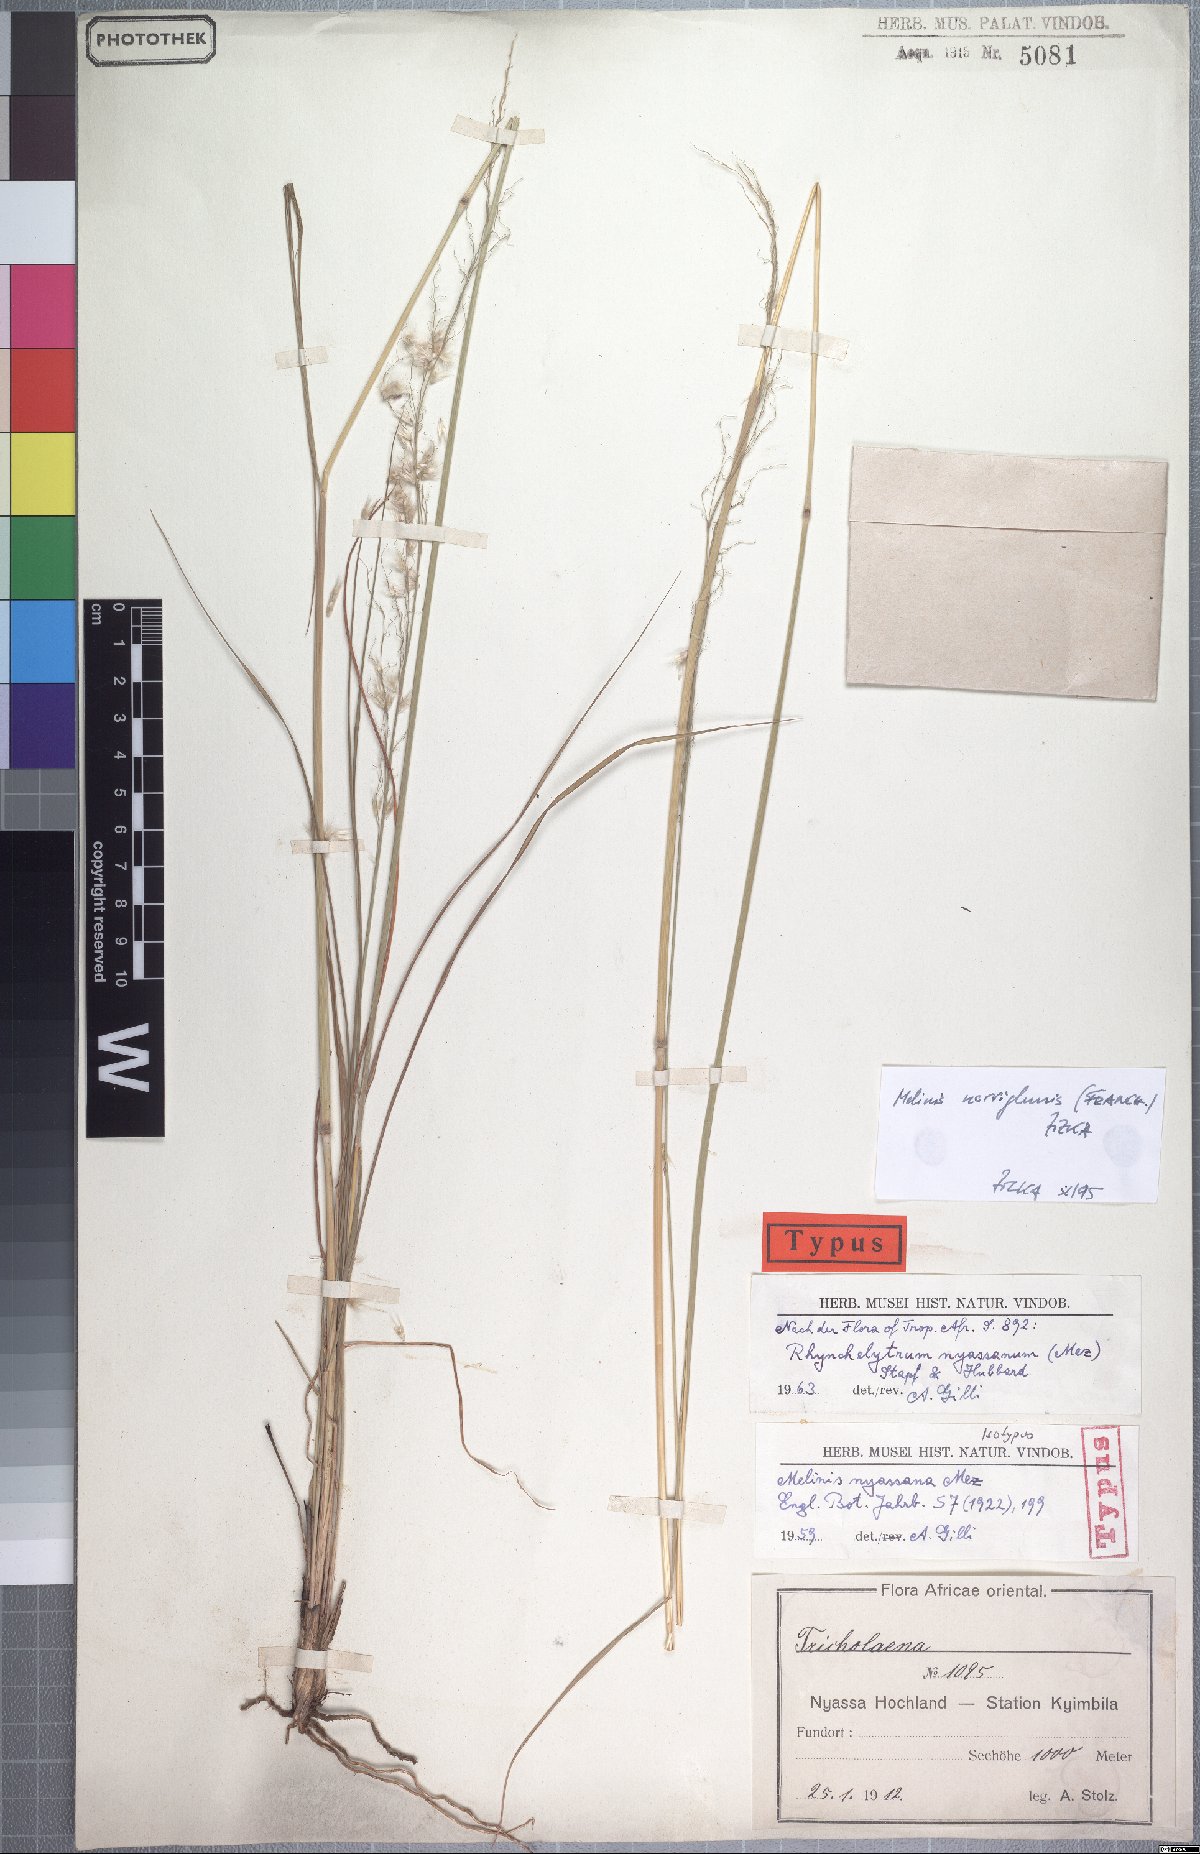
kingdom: Plantae
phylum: Tracheophyta
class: Liliopsida
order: Poales
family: Poaceae
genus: Melinis
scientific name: Melinis nerviglumis
